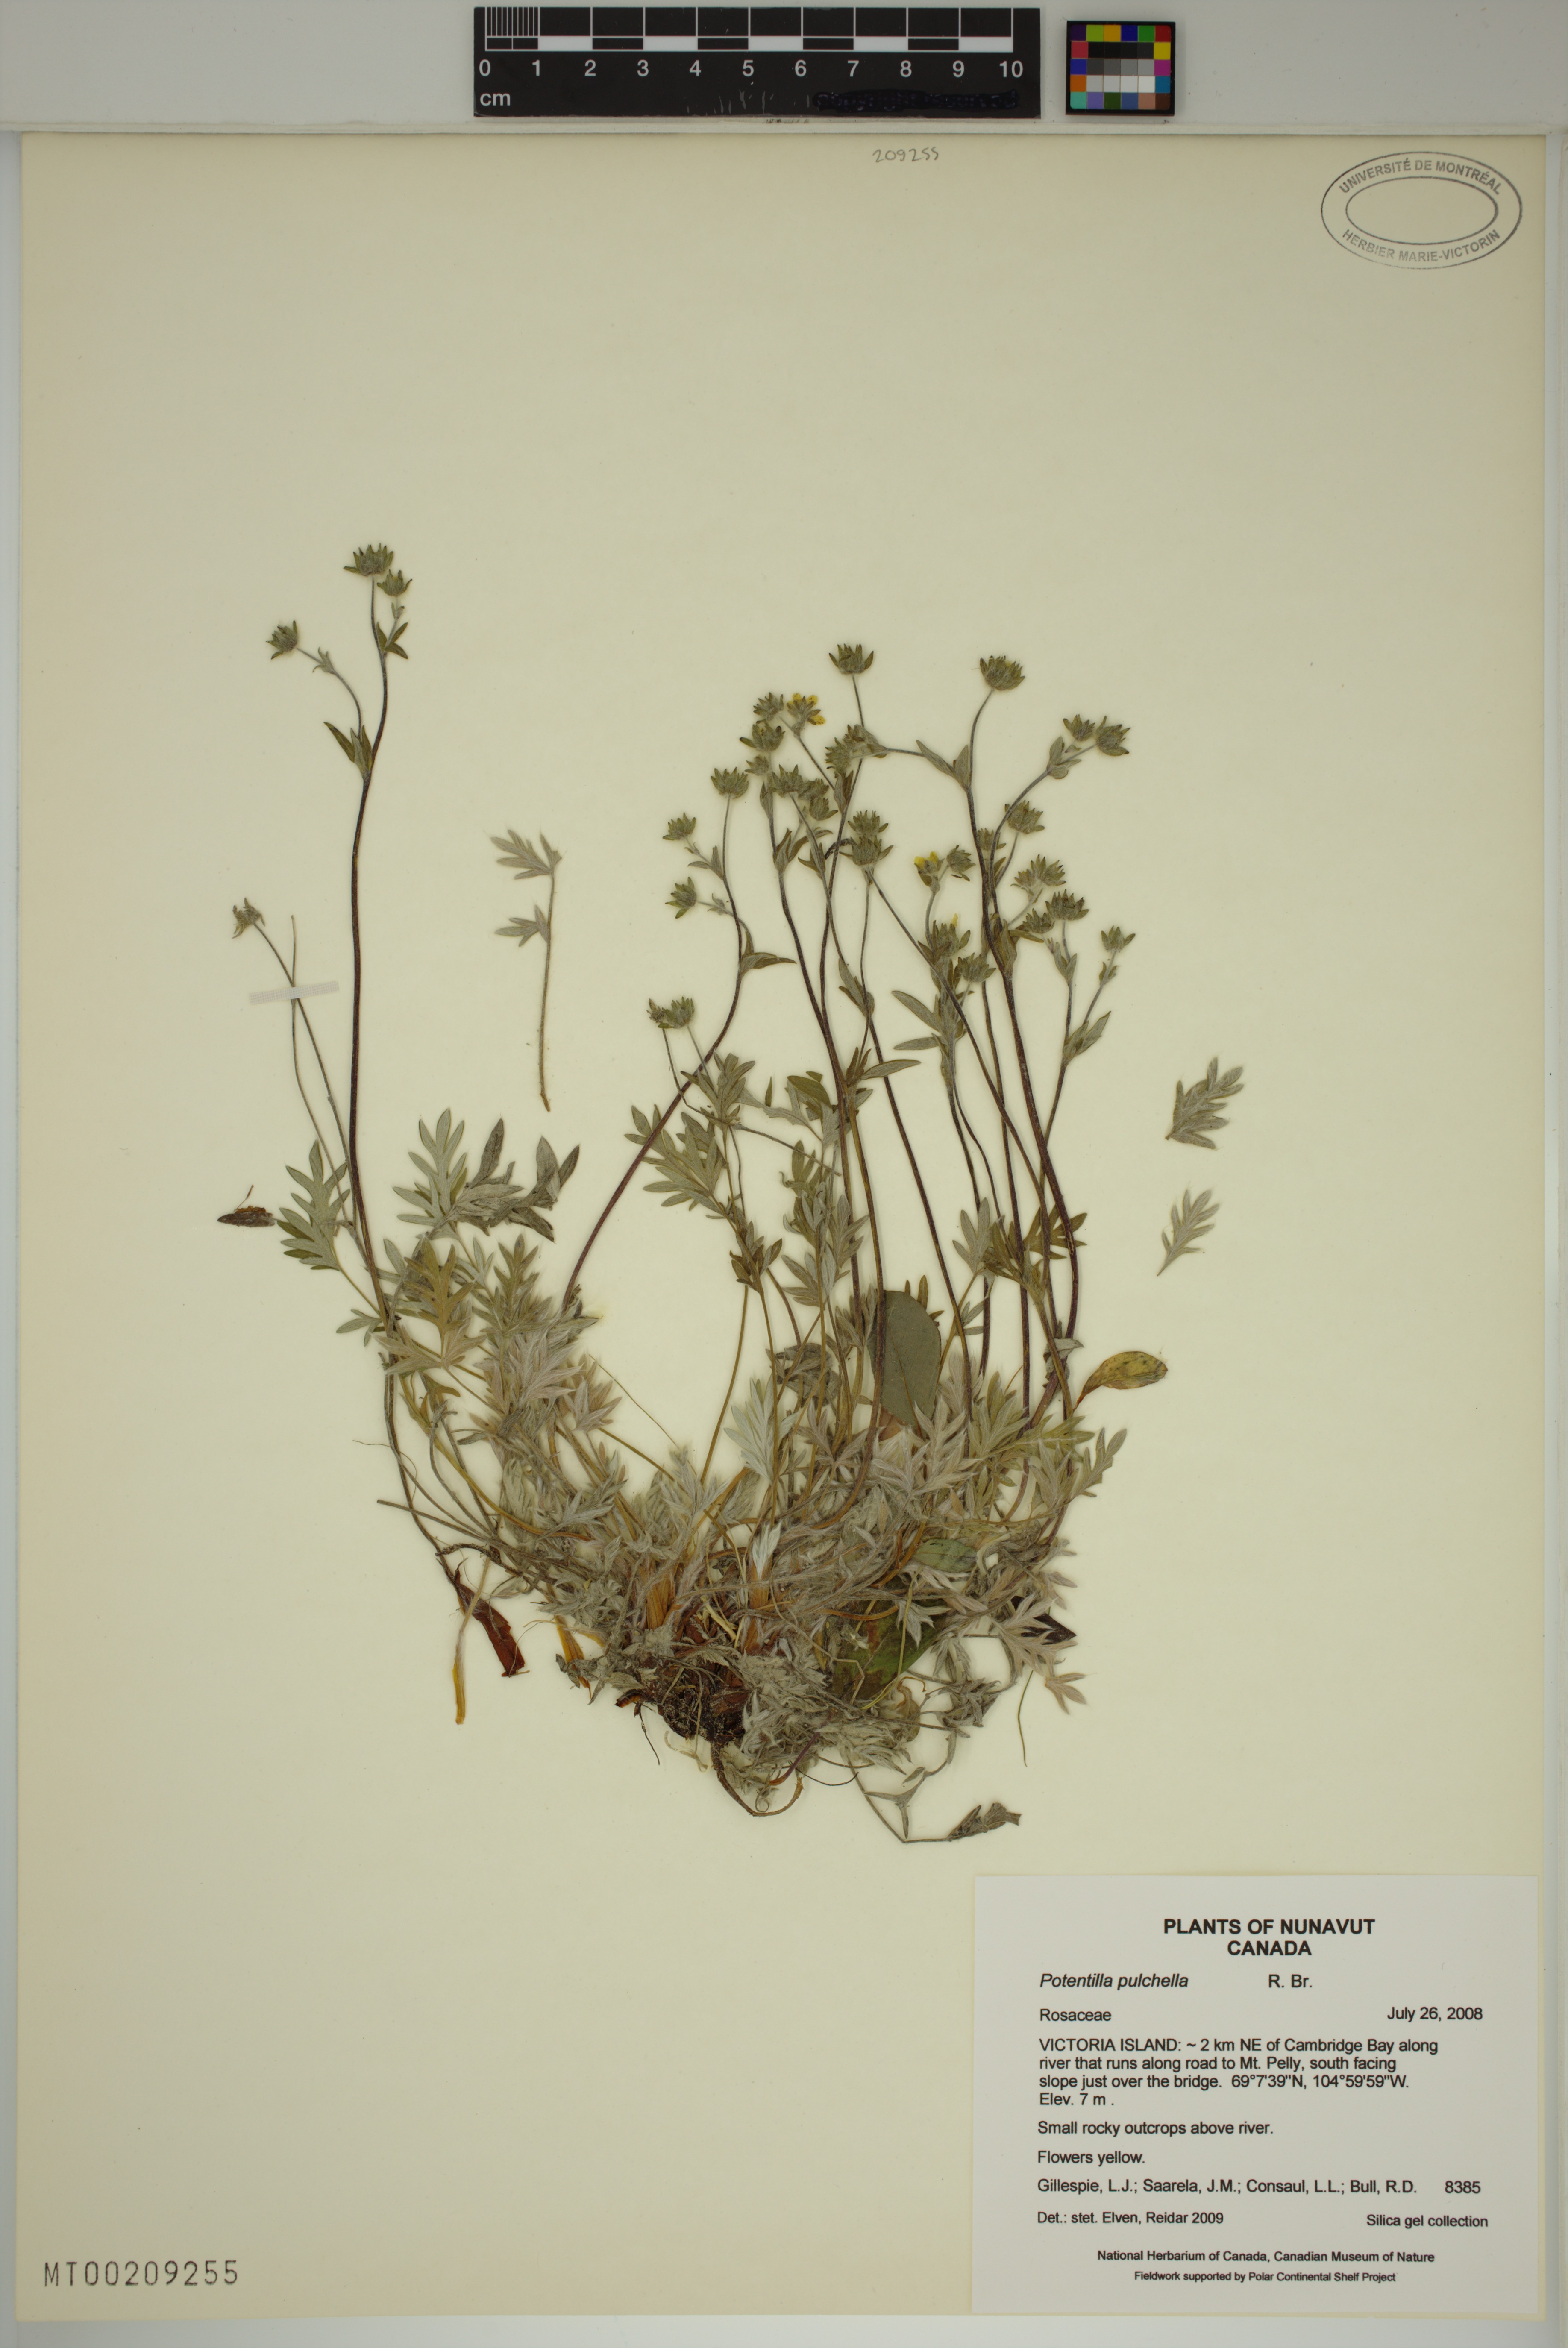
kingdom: Plantae
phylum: Tracheophyta
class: Magnoliopsida
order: Rosales
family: Rosaceae
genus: Potentilla
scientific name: Potentilla pulchella
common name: Pretty cinquefoil
